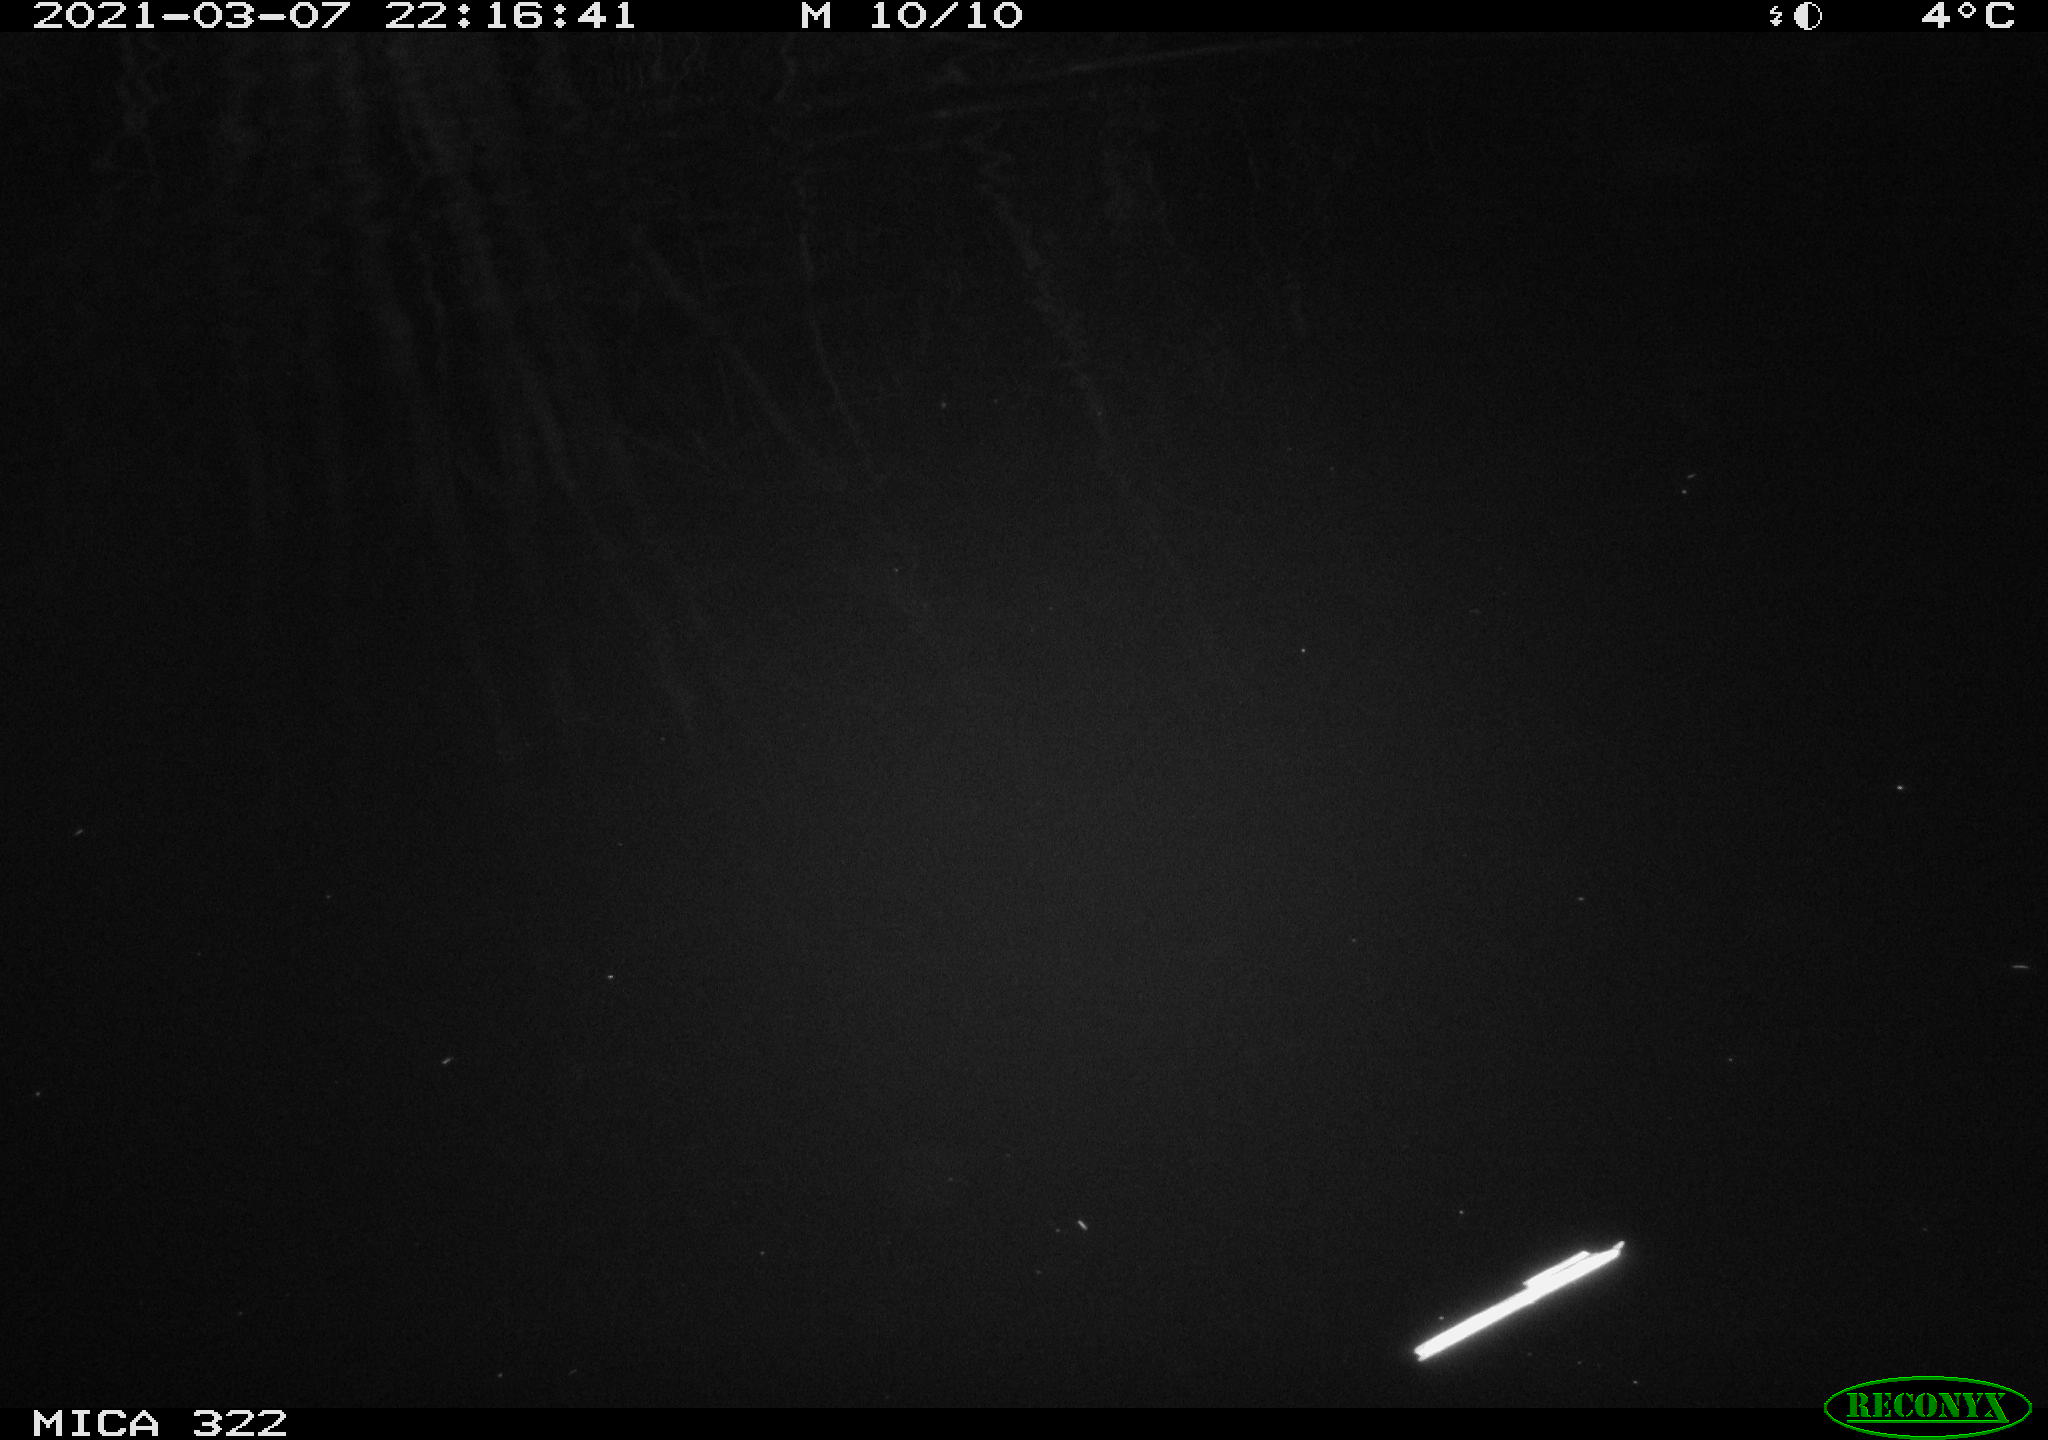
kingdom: Animalia
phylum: Chordata
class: Aves
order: Anseriformes
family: Anatidae
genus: Anser
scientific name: Anser anser
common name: Greylag goose
